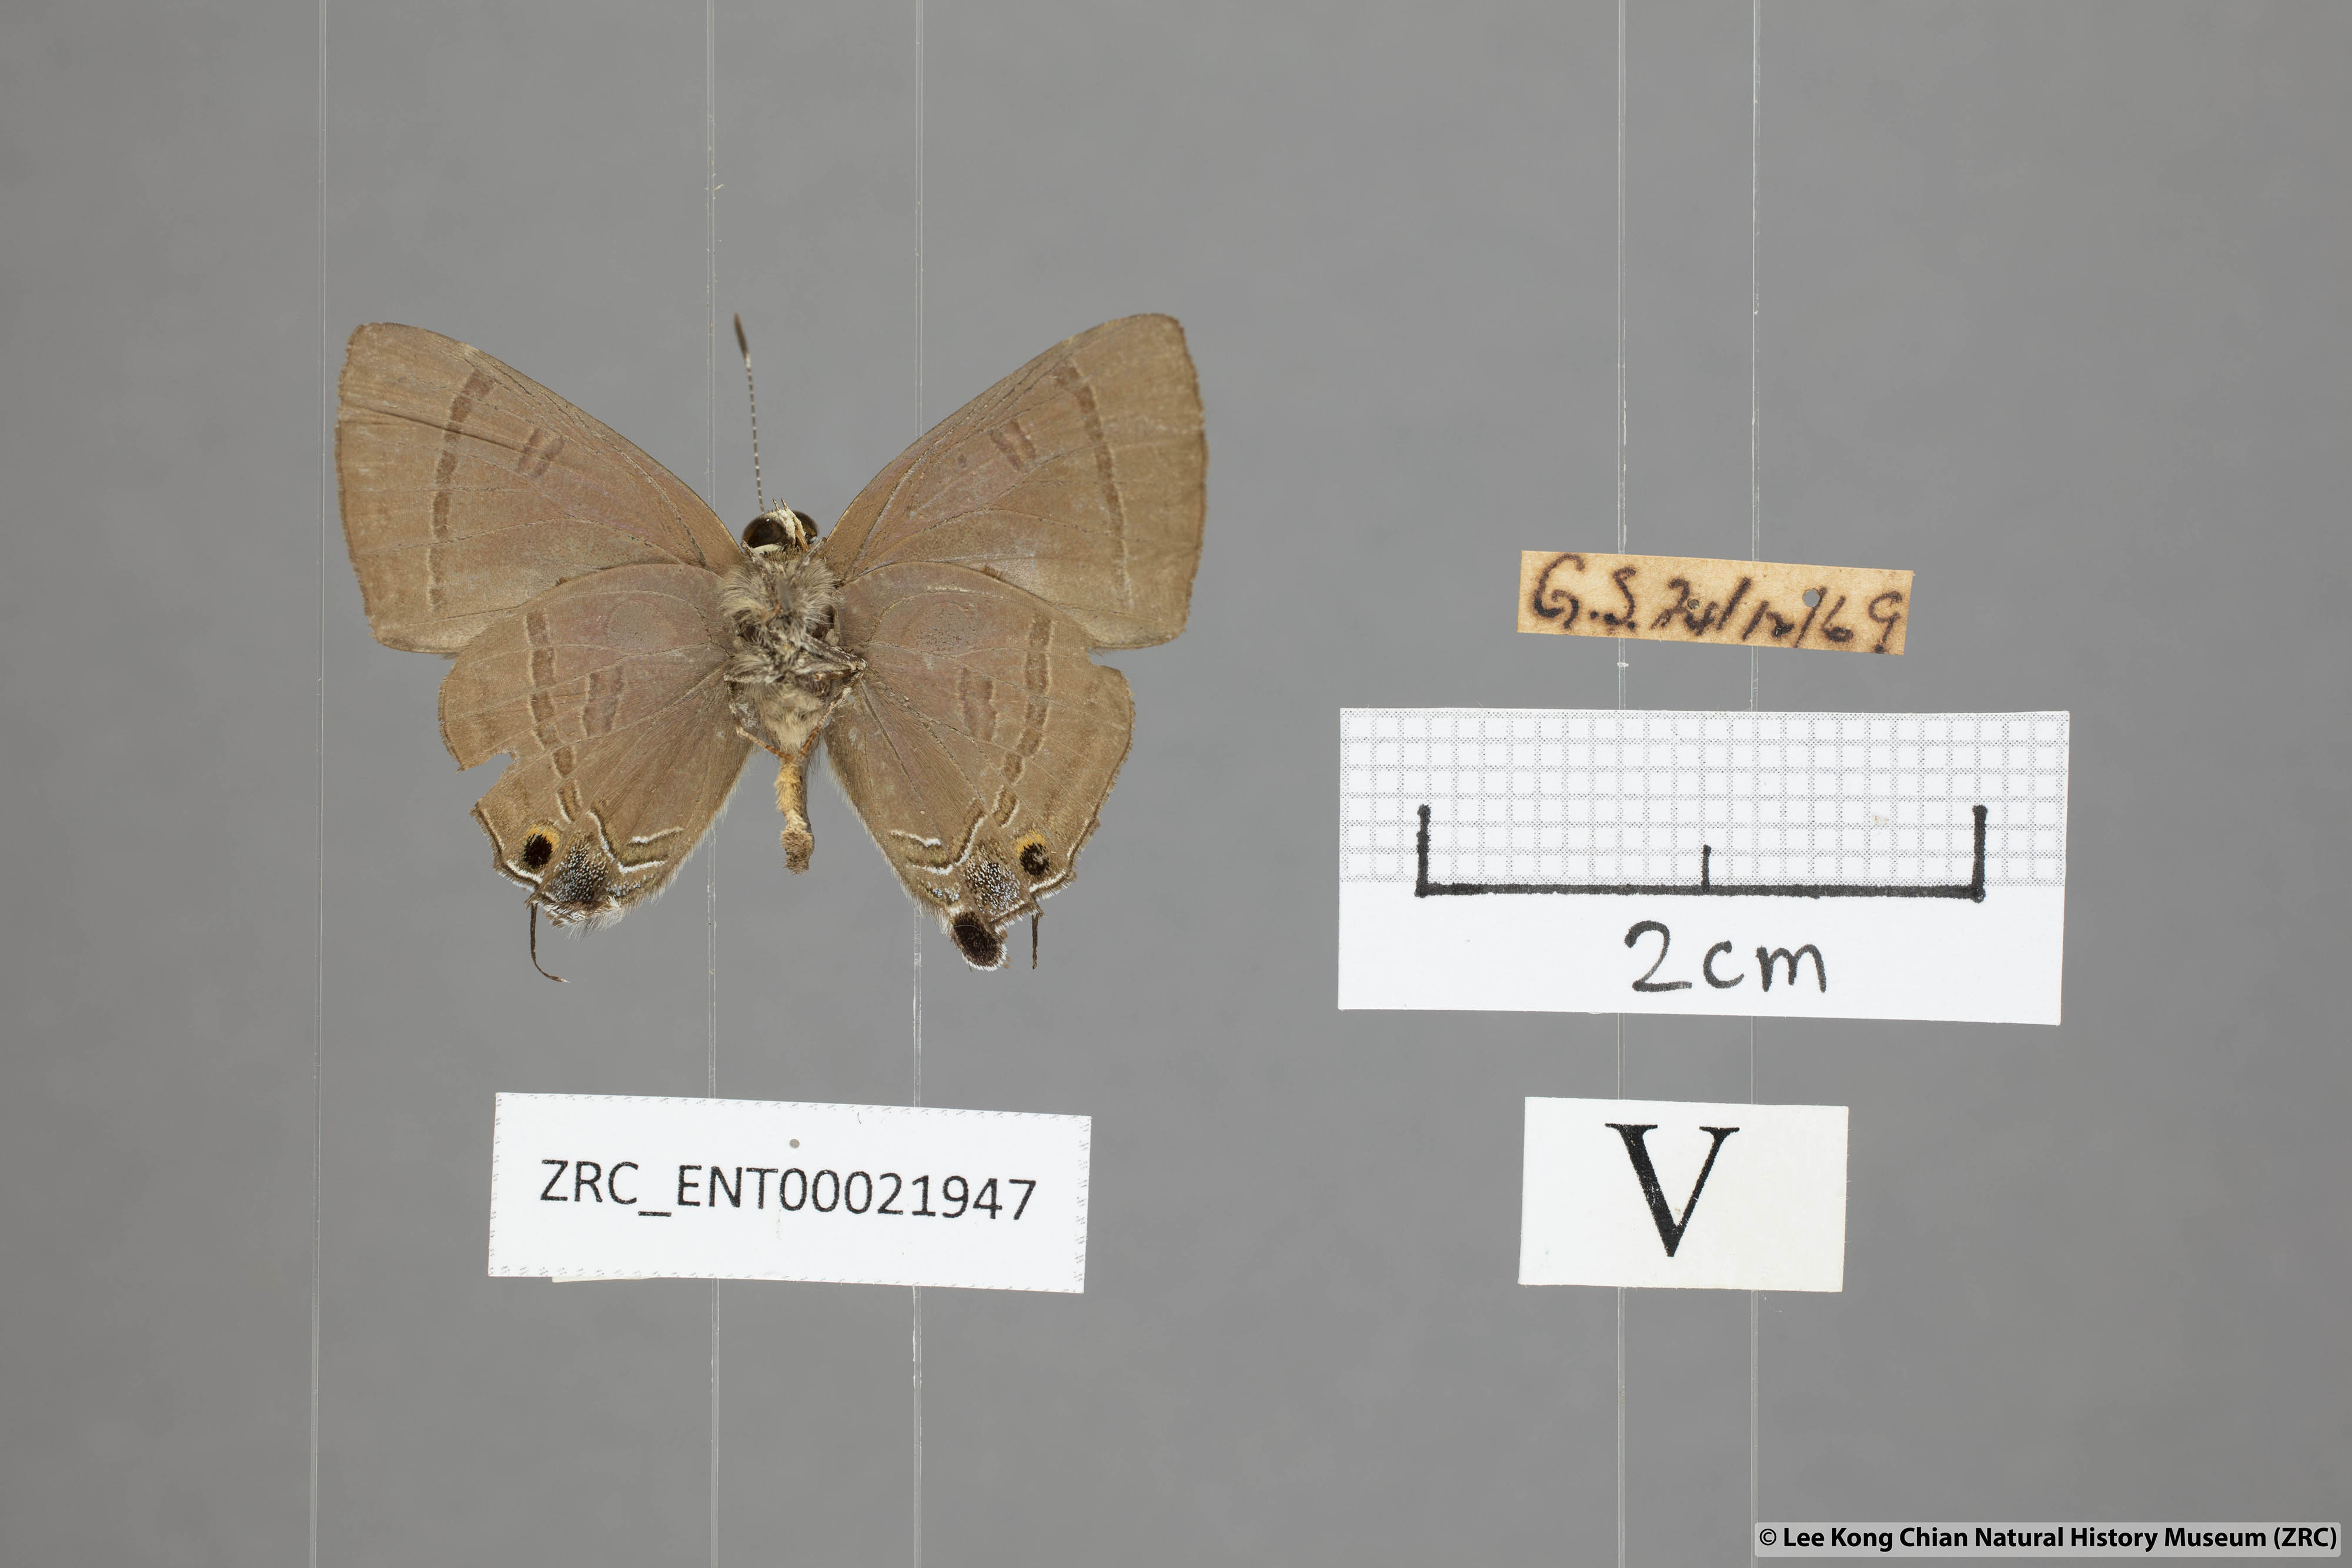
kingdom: Animalia
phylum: Arthropoda
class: Insecta
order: Lepidoptera
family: Lycaenidae
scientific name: Lycaenidae
